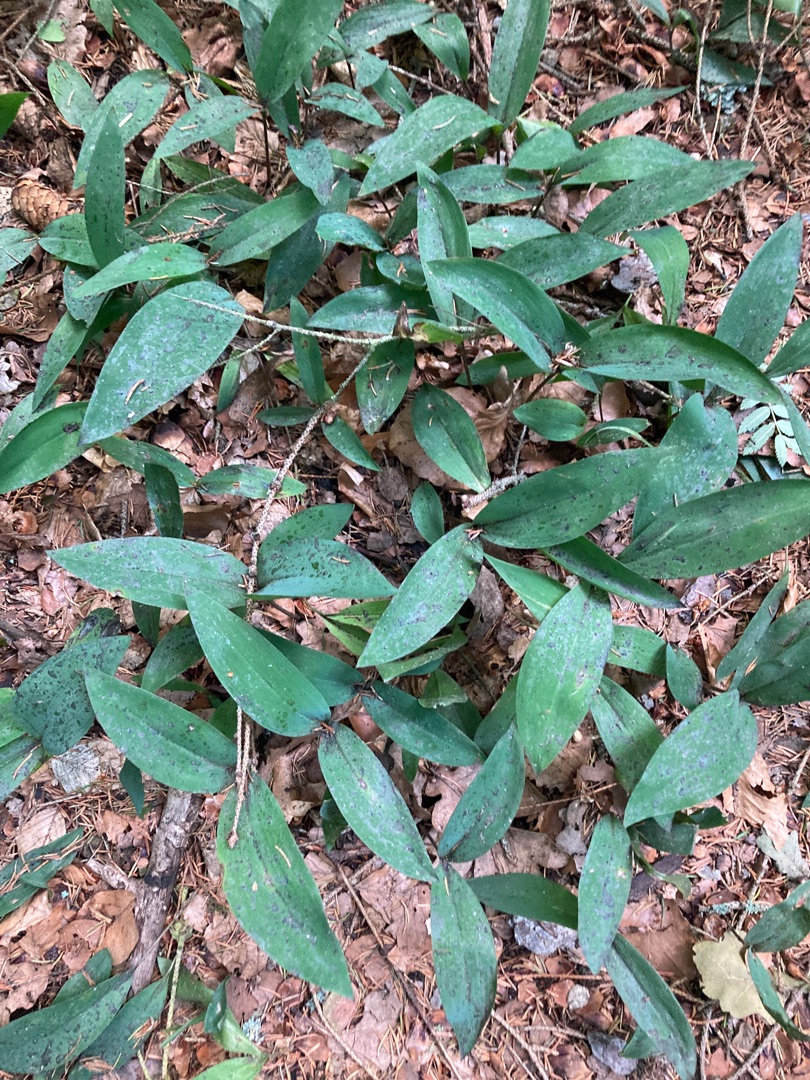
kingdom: Plantae
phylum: Tracheophyta
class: Liliopsida
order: Asparagales
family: Asparagaceae
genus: Convallaria
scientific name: Convallaria majalis
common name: Liljekonval
